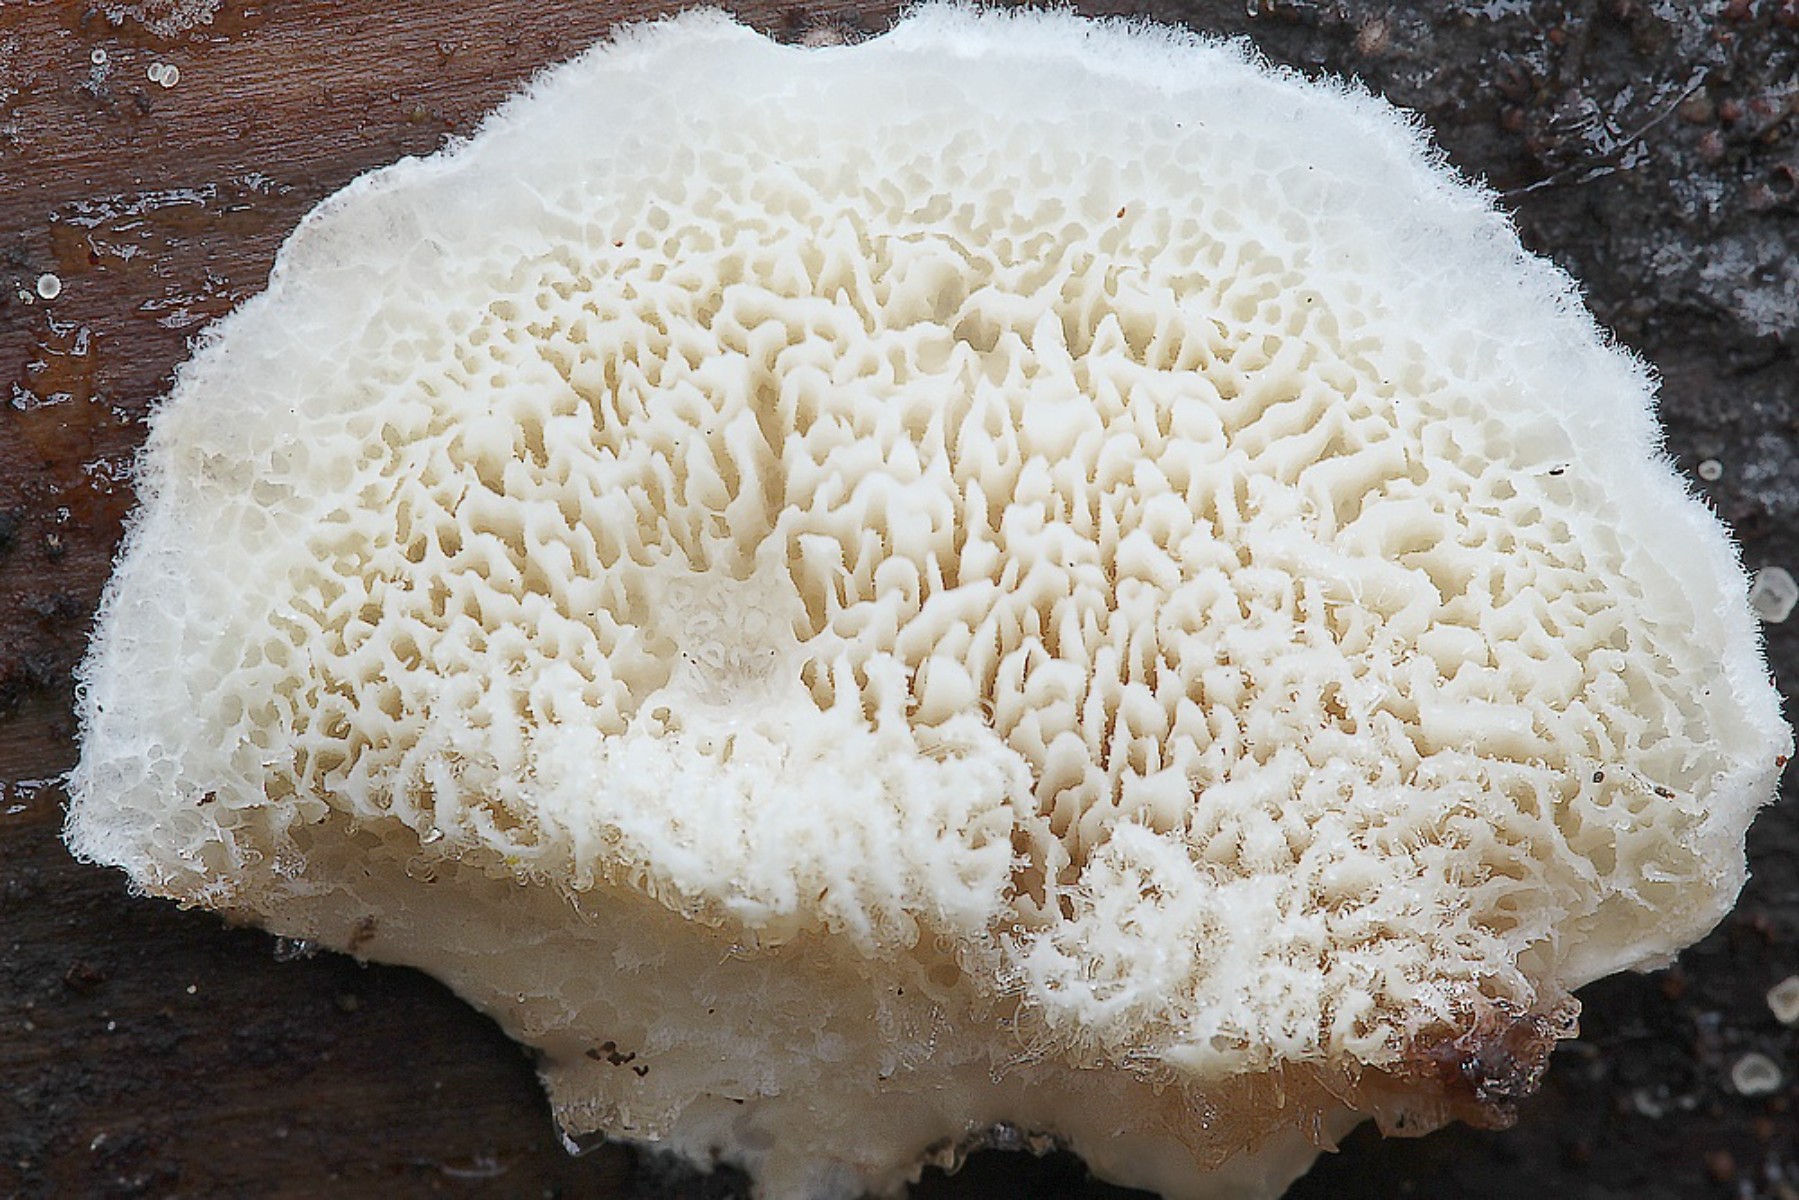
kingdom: Fungi
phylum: Basidiomycota
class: Agaricomycetes
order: Hymenochaetales
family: Schizoporaceae
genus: Xylodon
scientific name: Xylodon subtropicus
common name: labyrint-tandsvamp
